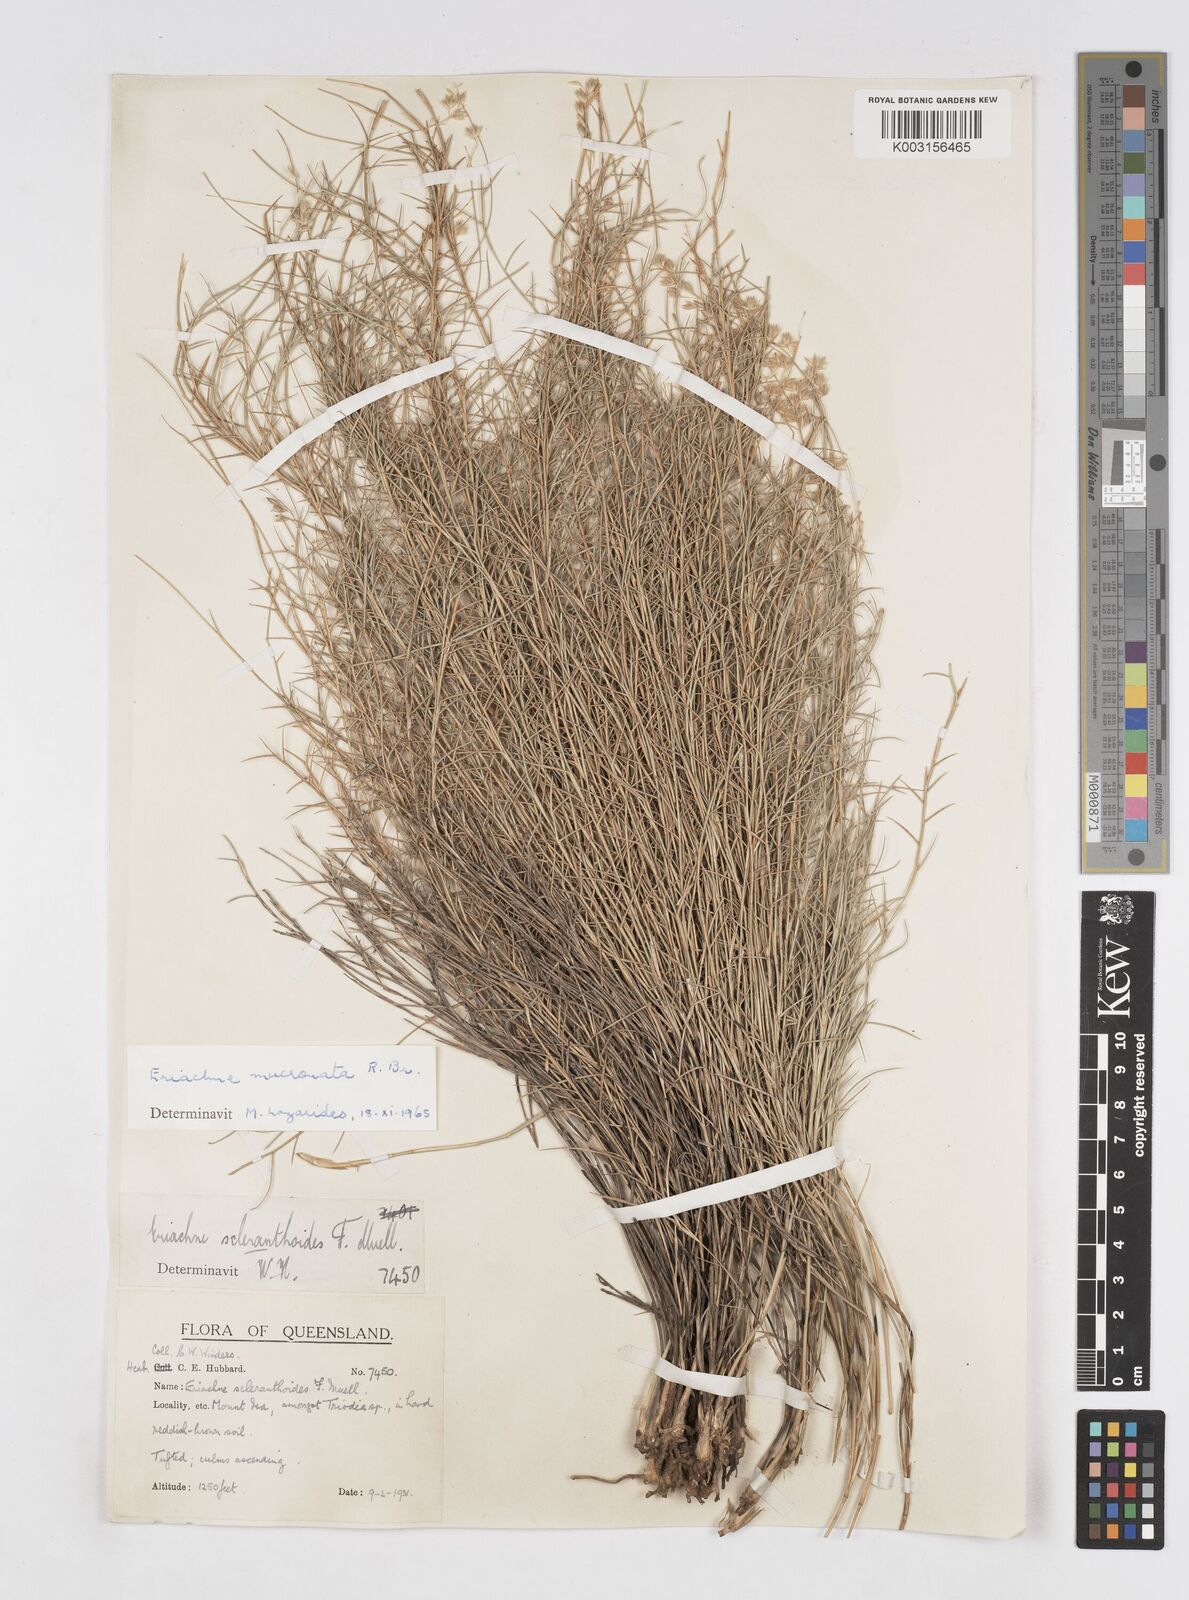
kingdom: Plantae
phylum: Tracheophyta
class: Liliopsida
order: Poales
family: Poaceae
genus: Eriachne
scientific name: Eriachne mucronata
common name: Mountain wanderrie grass
